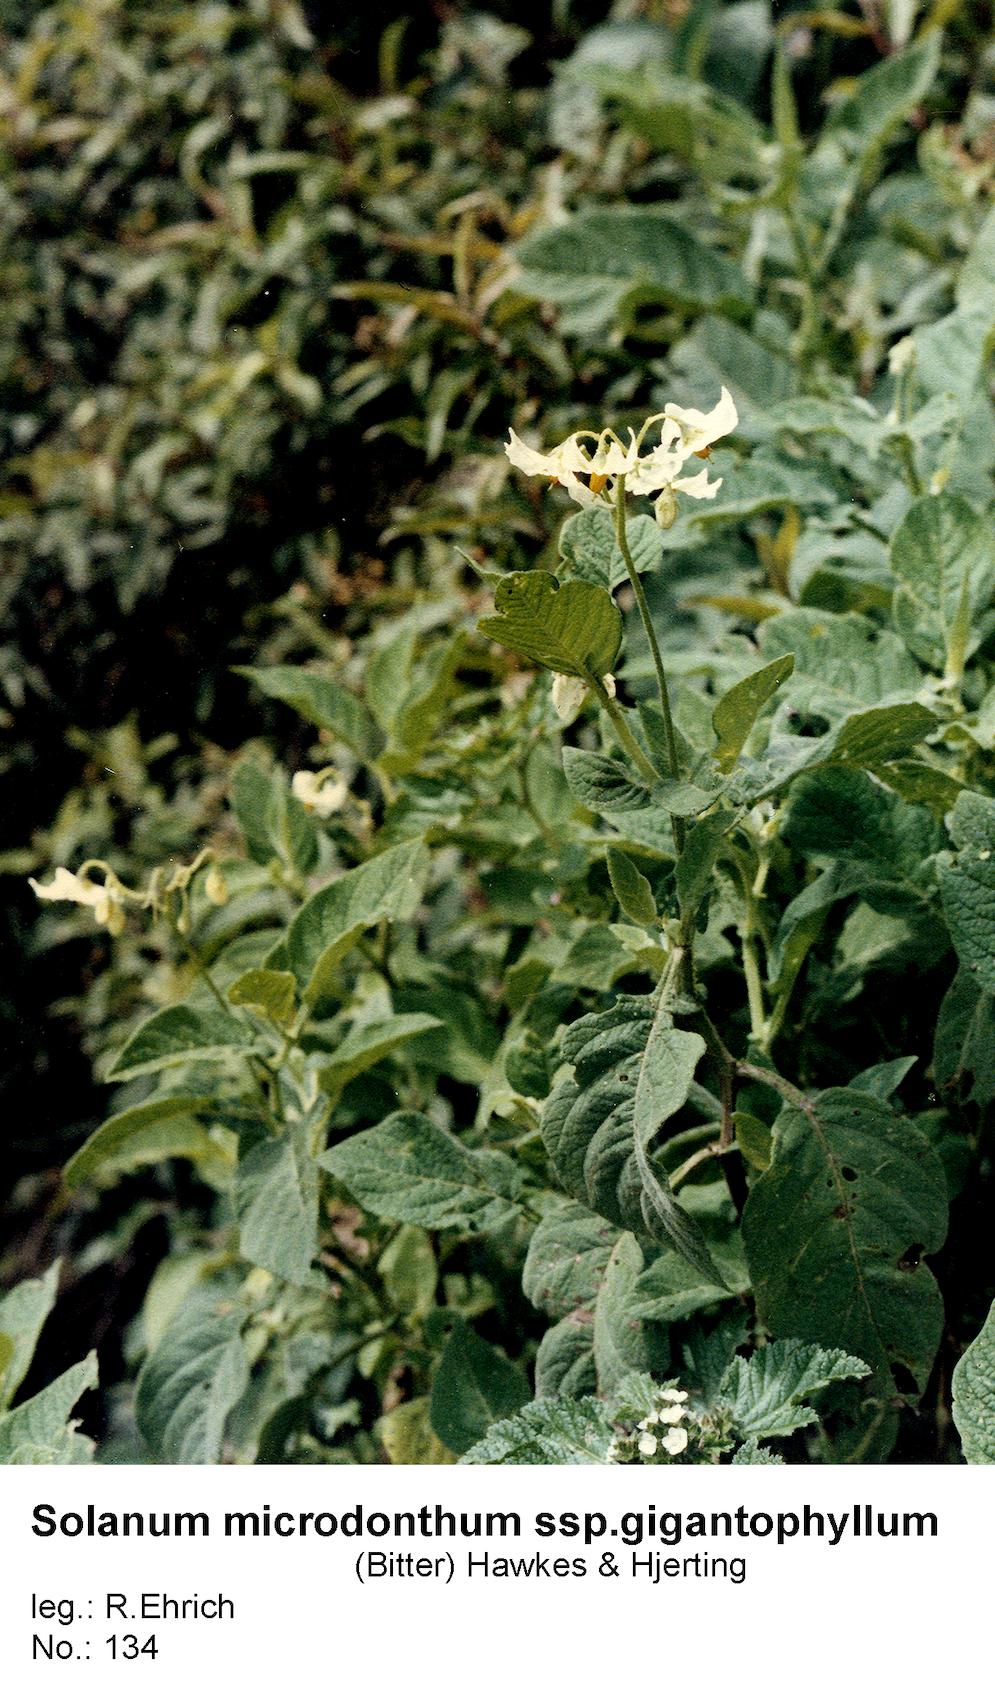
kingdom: Plantae
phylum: Tracheophyta
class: Magnoliopsida
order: Solanales
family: Solanaceae
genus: Solanum
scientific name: Solanum microdontum
